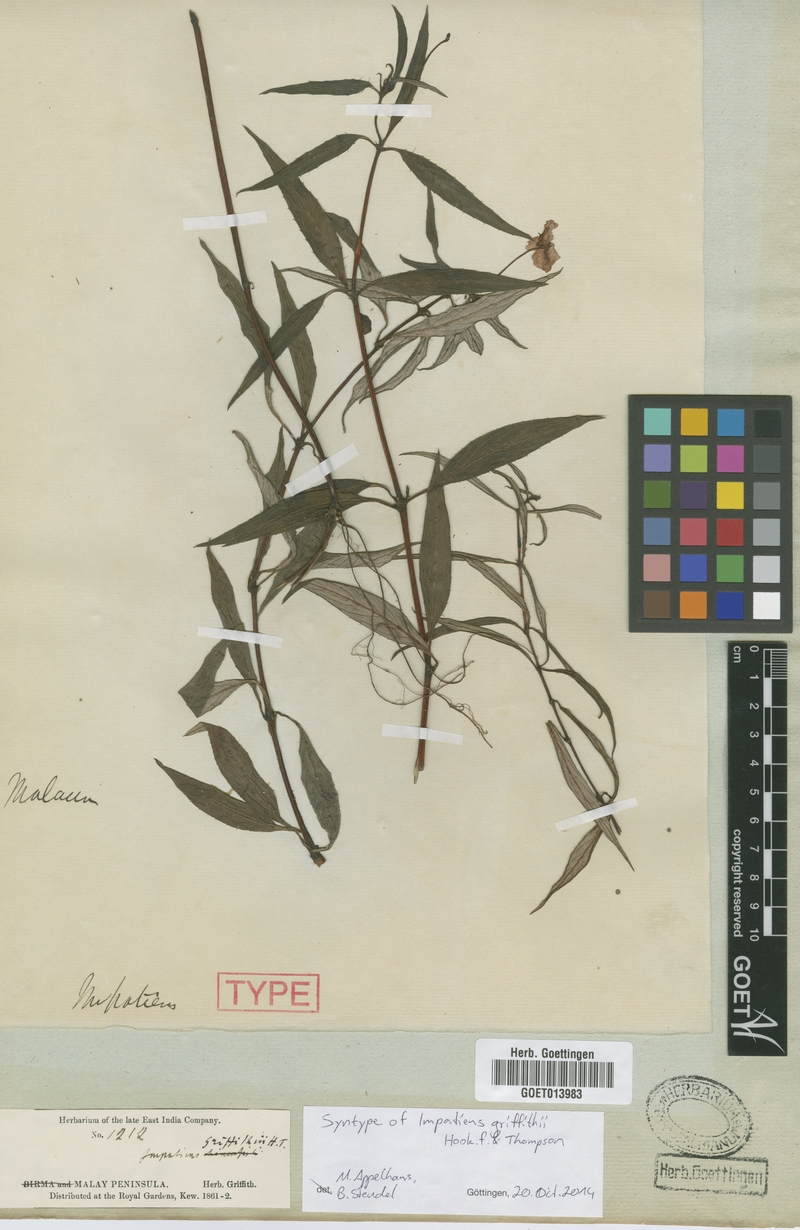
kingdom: Plantae
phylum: Tracheophyta
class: Magnoliopsida
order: Ericales
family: Balsaminaceae
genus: Impatiens
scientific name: Impatiens griffithii
